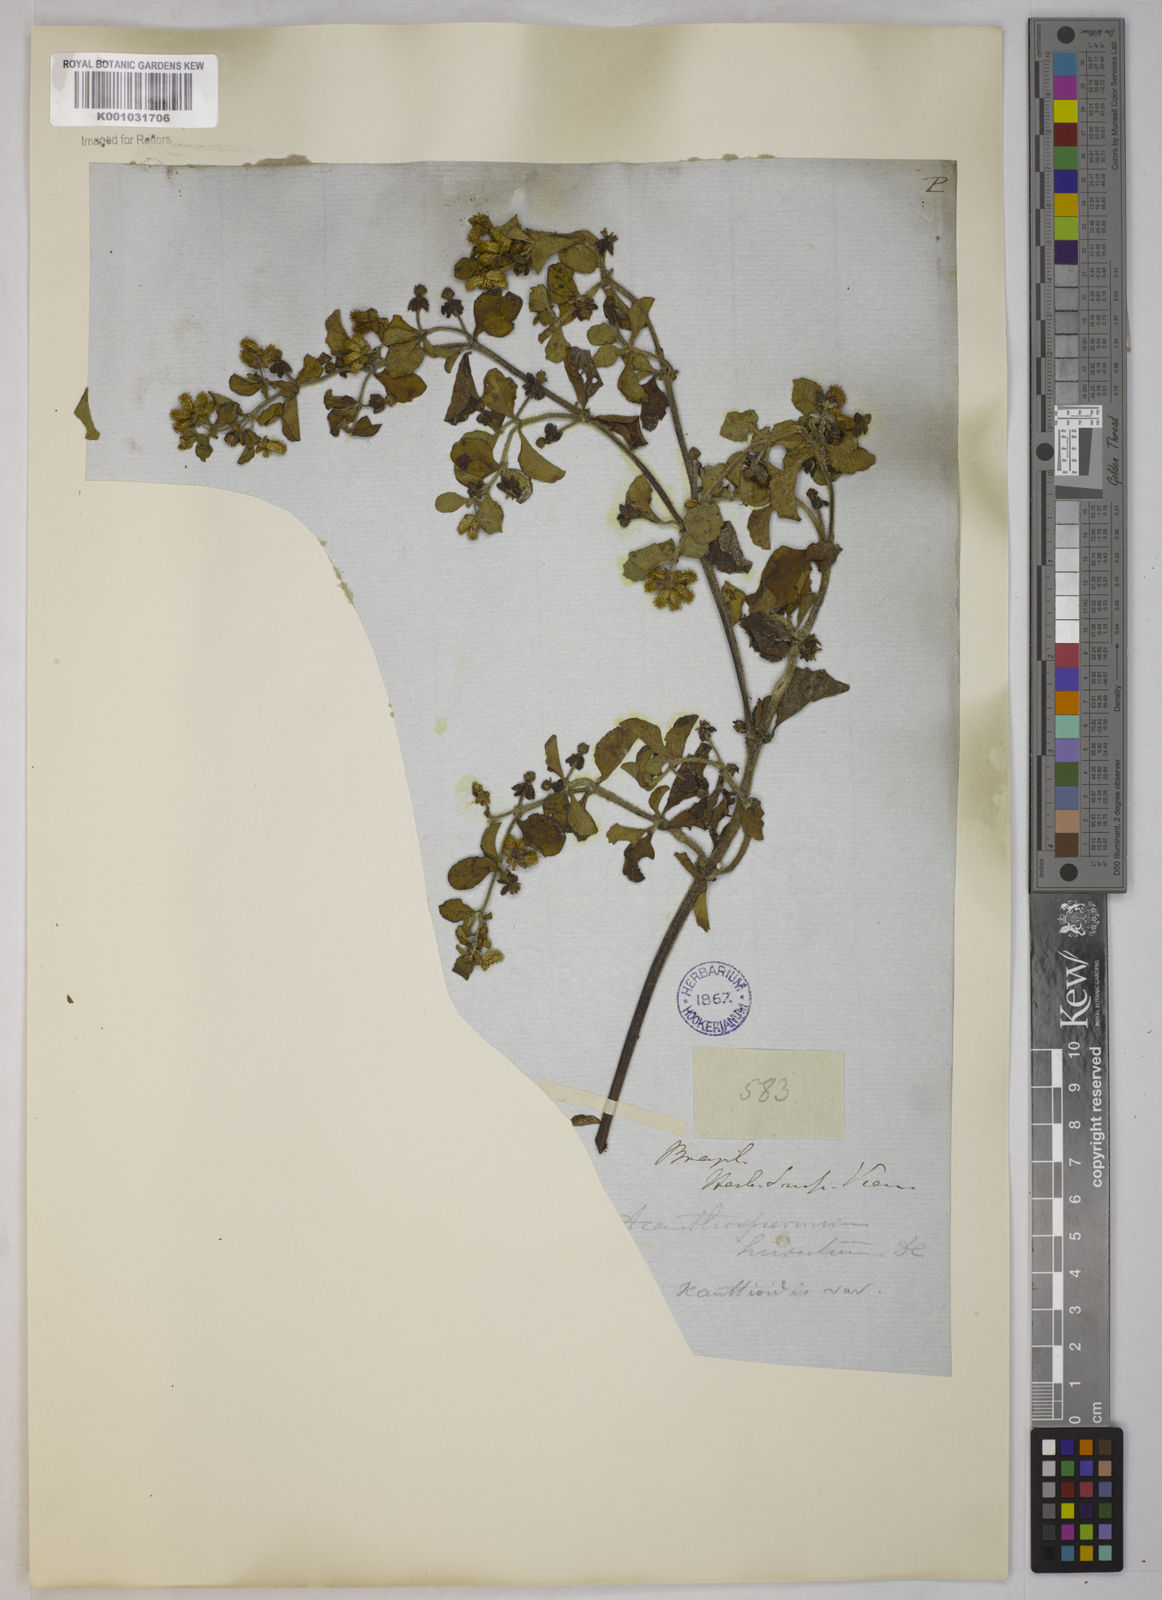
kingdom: Plantae
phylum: Tracheophyta
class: Magnoliopsida
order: Asterales
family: Asteraceae
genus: Acanthospermum
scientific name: Acanthospermum australe
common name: Paraguayan starbur
